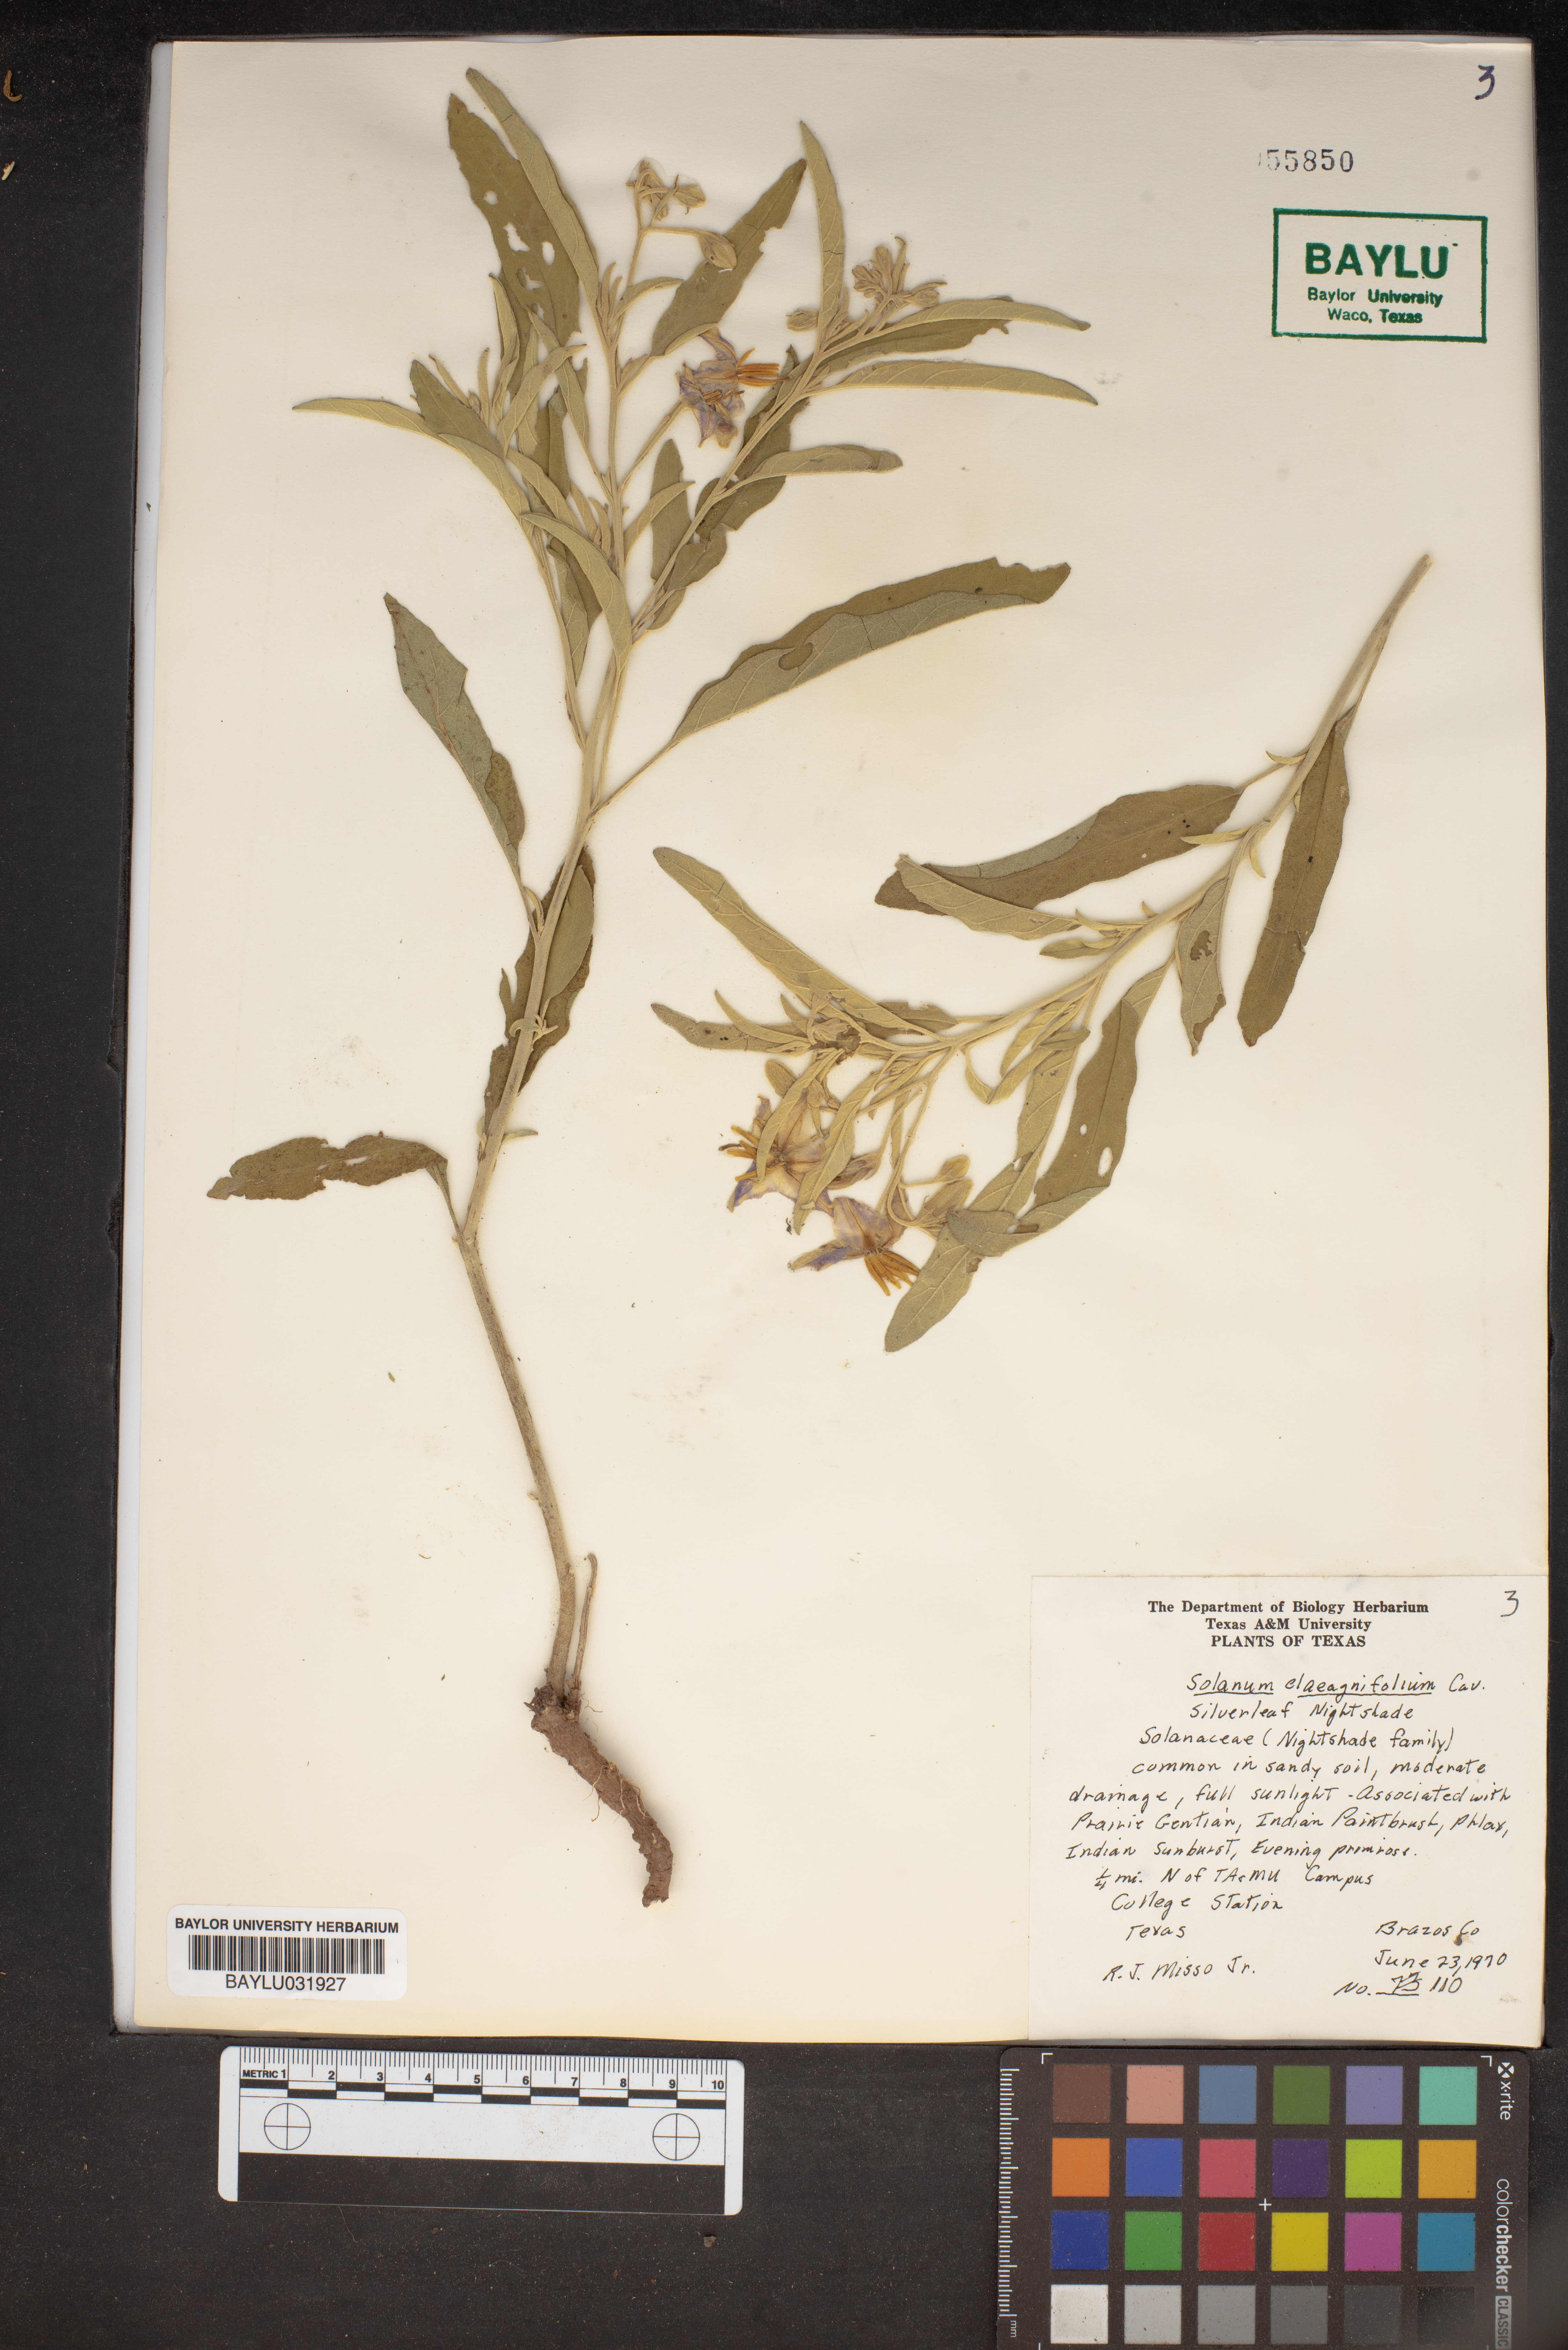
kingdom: Plantae
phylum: Tracheophyta
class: Magnoliopsida
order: Solanales
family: Solanaceae
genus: Solanum
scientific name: Solanum elaeagnifolium
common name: Silverleaf nightshade
